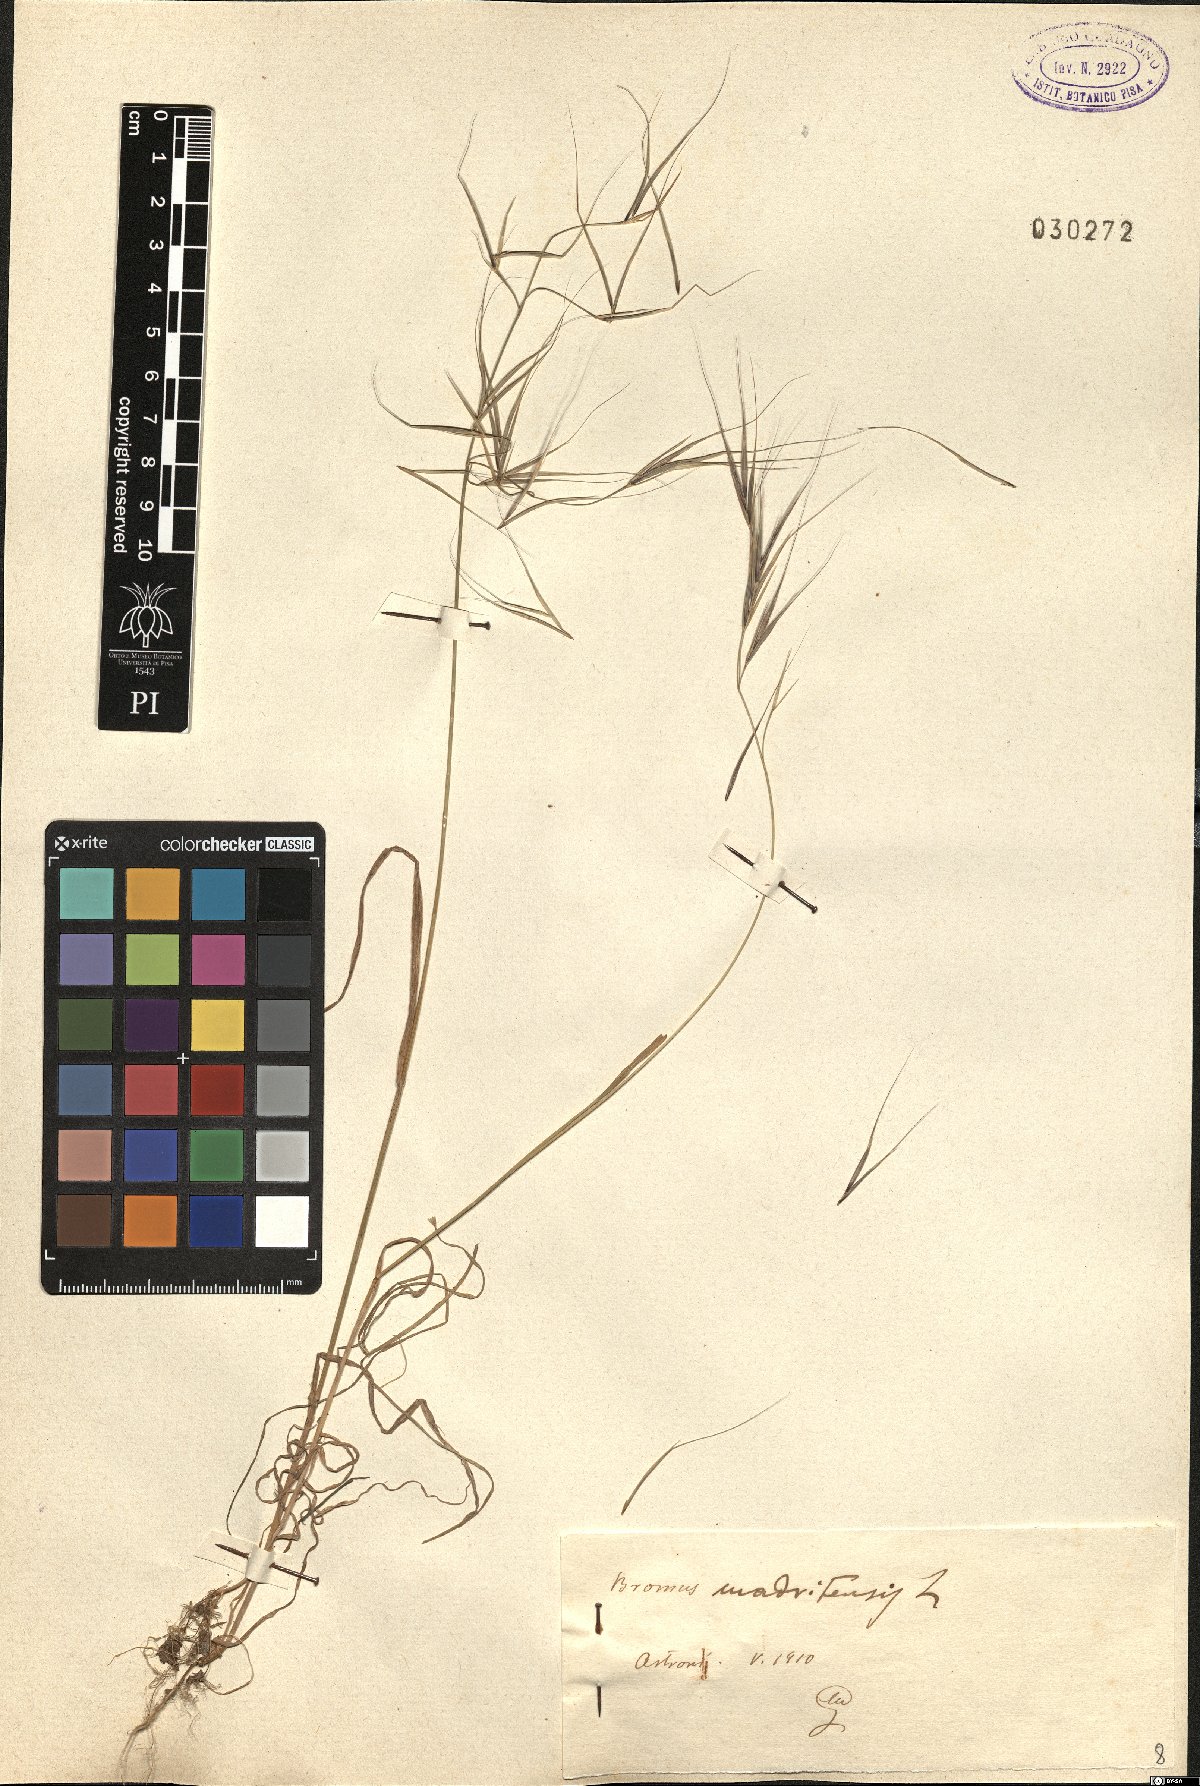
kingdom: Plantae
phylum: Tracheophyta
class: Liliopsida
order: Poales
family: Poaceae
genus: Bromus
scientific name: Bromus madritensis
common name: Compact brome
